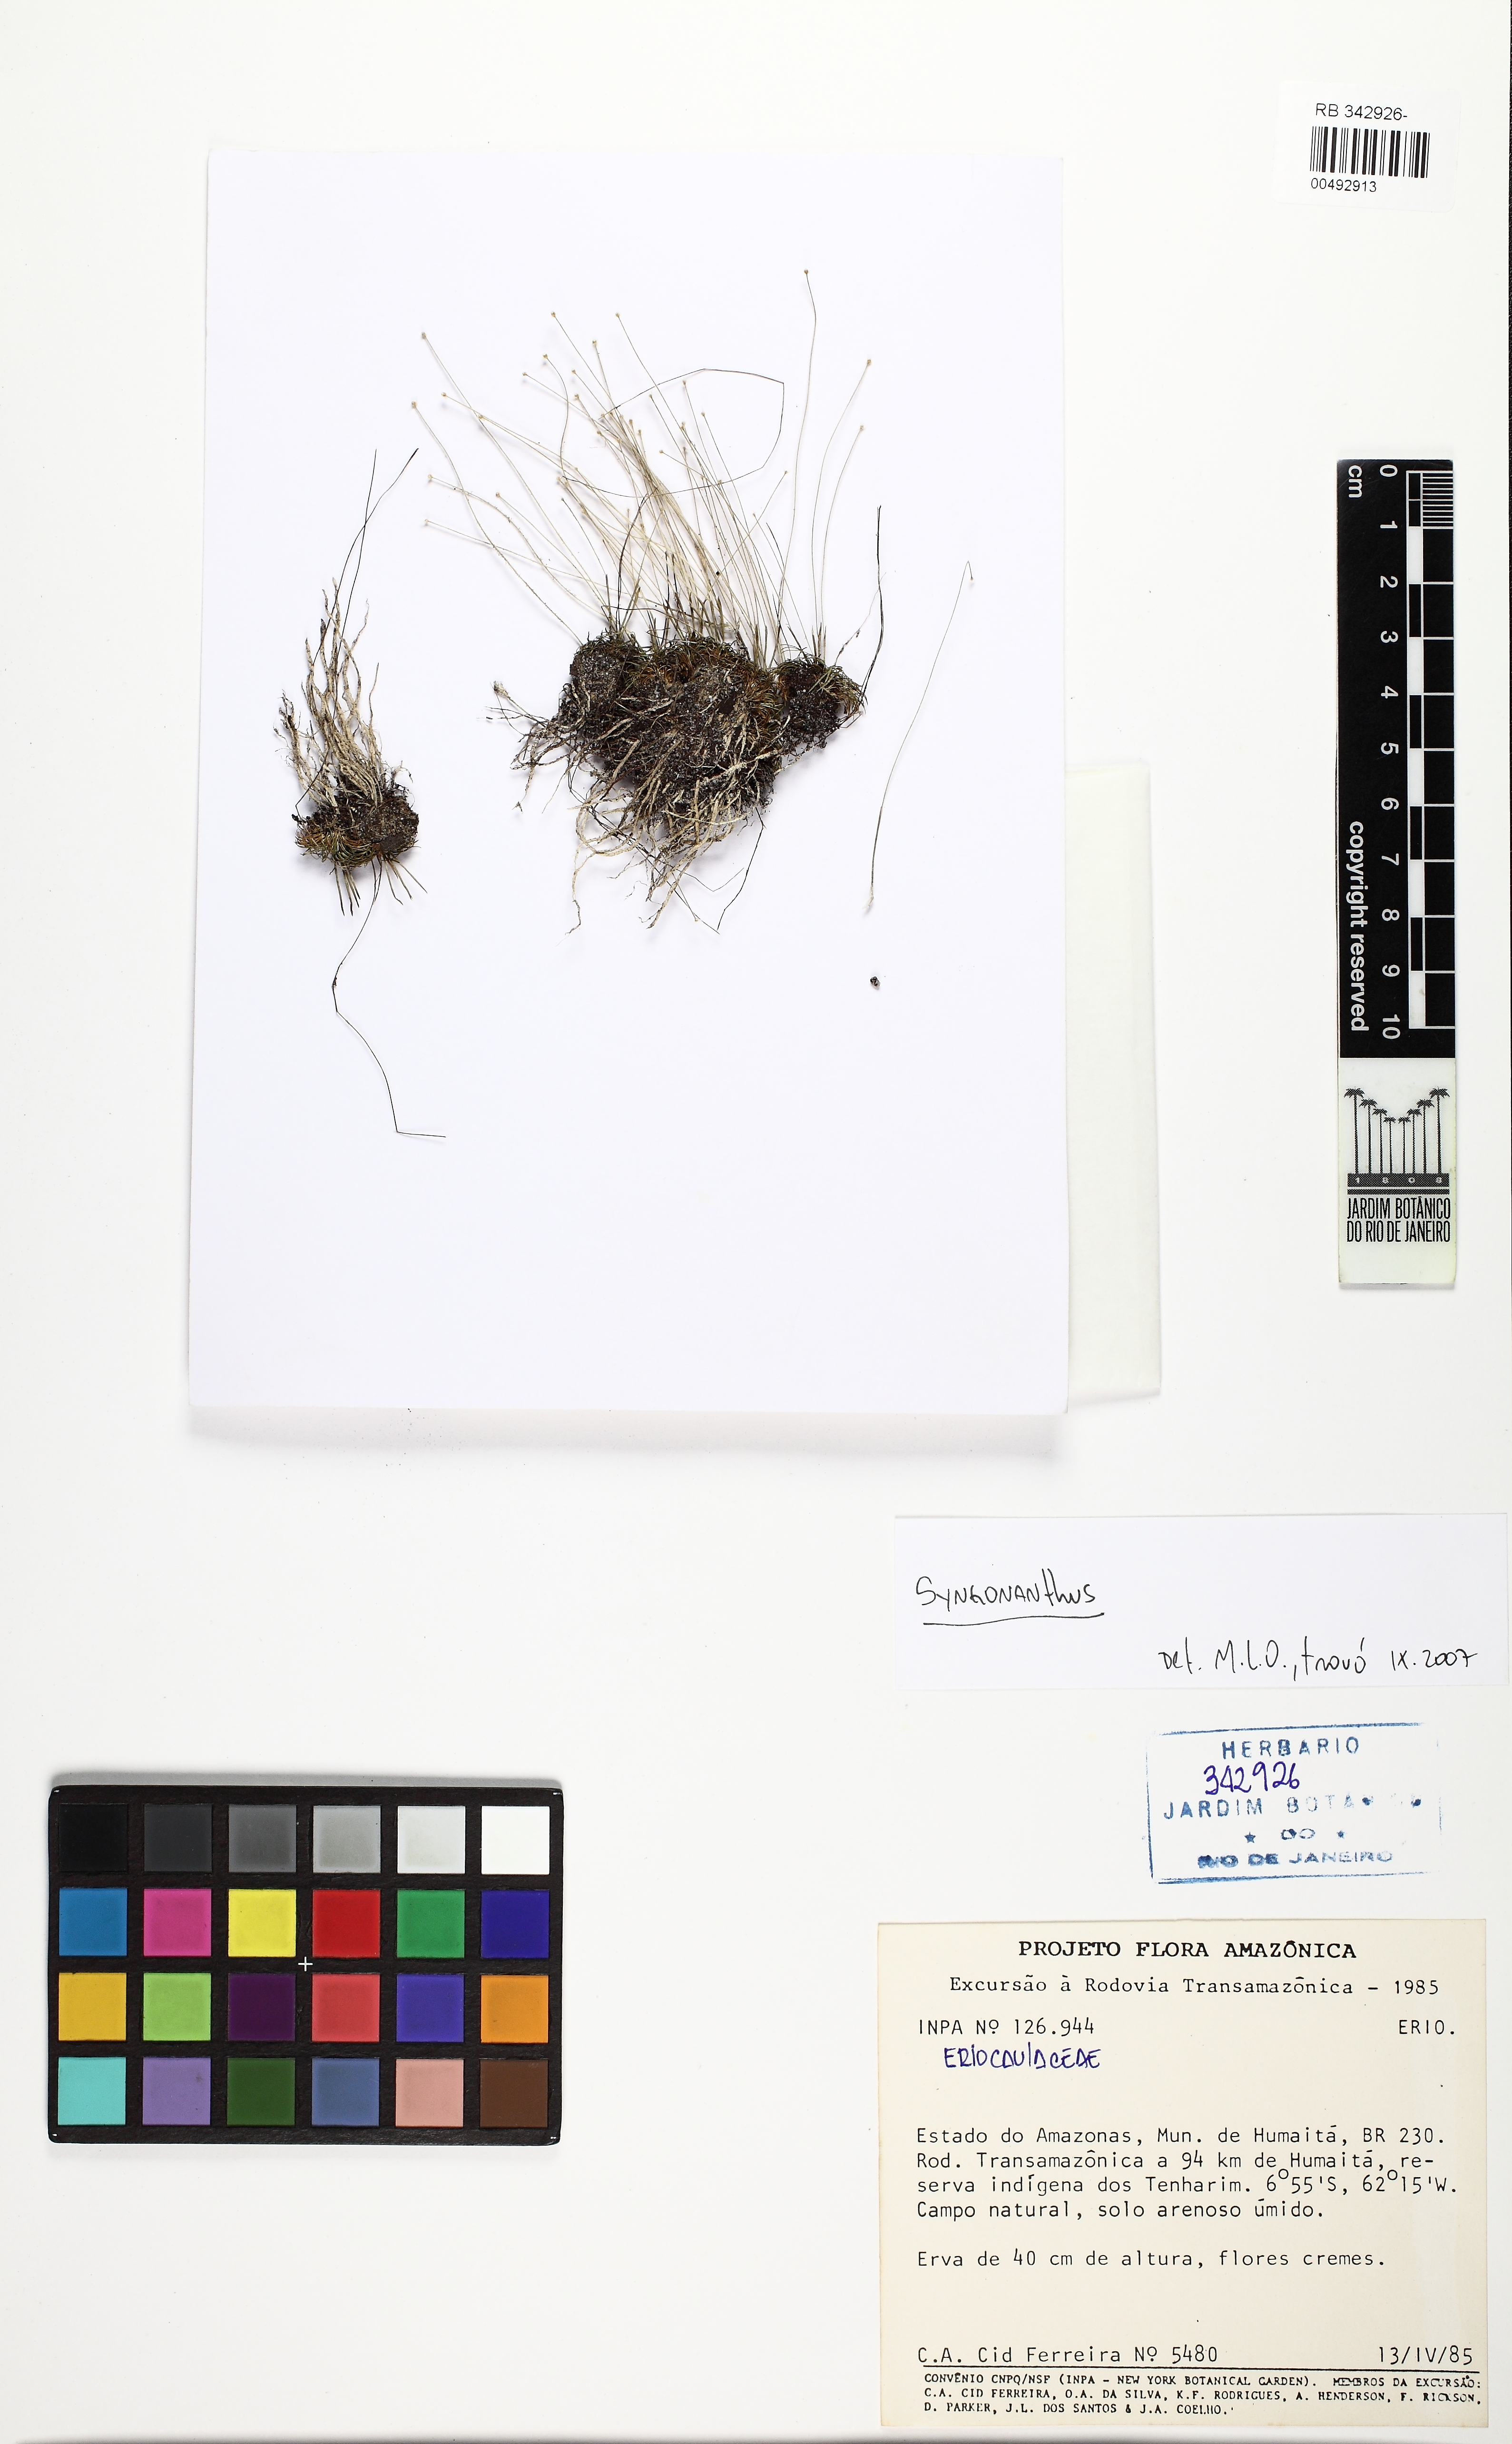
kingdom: Plantae
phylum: Tracheophyta
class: Magnoliopsida
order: Picramniales
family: Picramniaceae
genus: Picramnia
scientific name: Picramnia bahiensis
